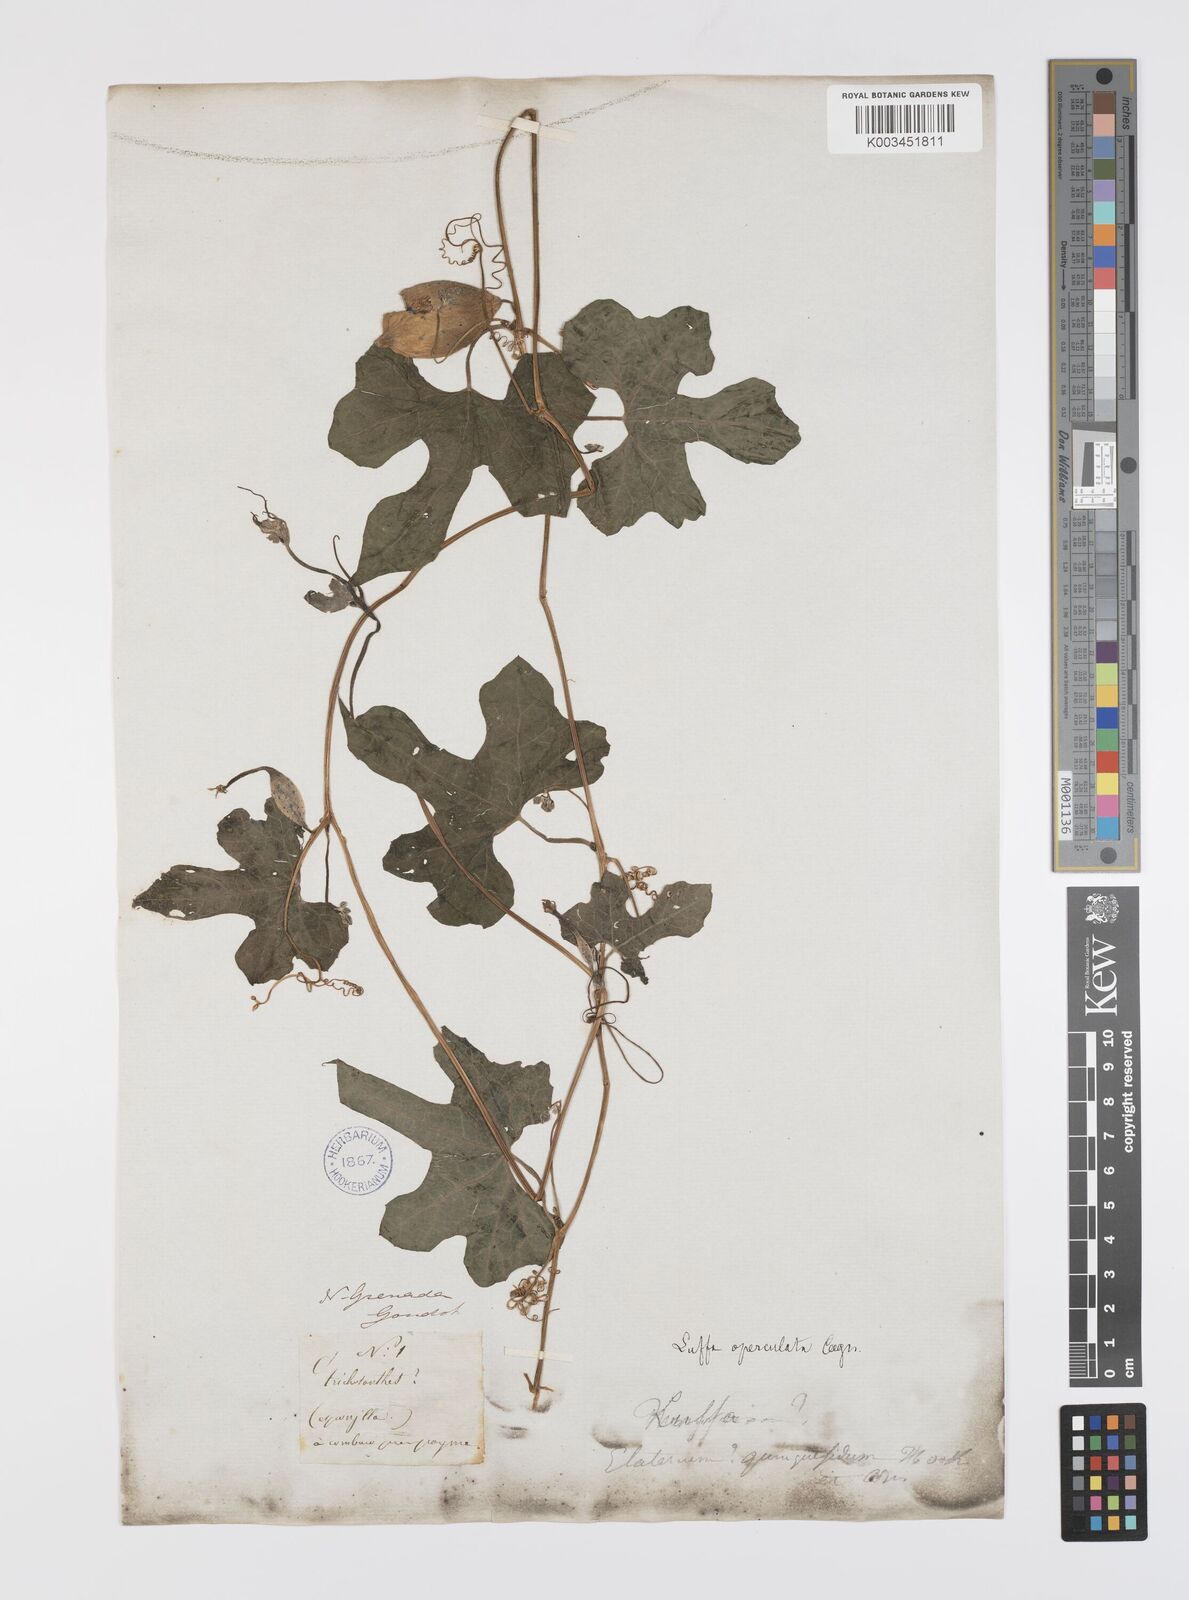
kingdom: Plantae
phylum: Tracheophyta
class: Magnoliopsida
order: Cucurbitales
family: Cucurbitaceae
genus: Luffa
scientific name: Luffa operculata
